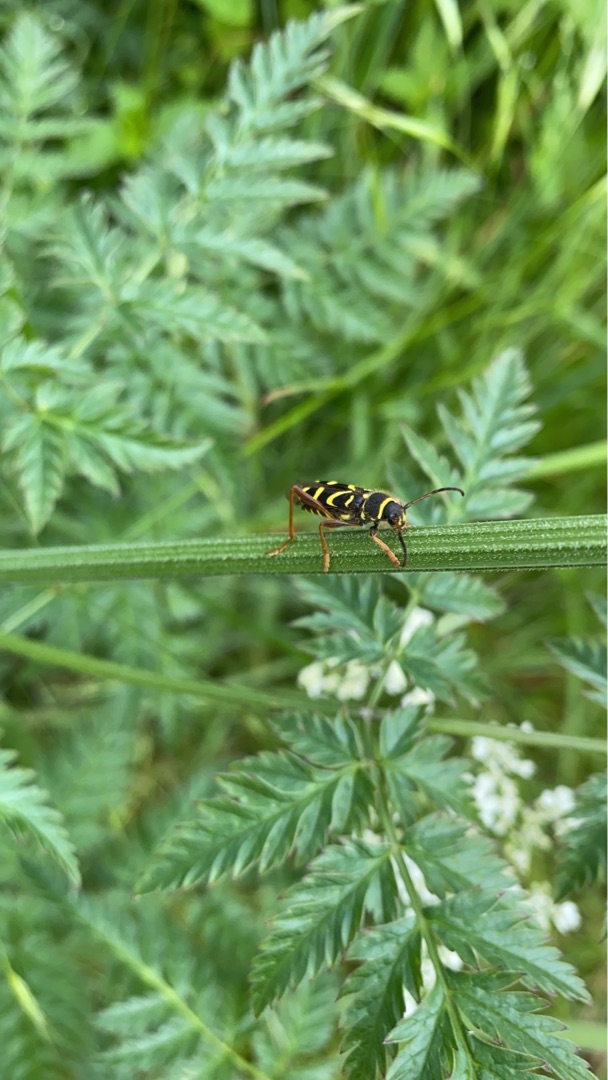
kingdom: Animalia
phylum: Arthropoda
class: Insecta
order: Coleoptera
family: Cerambycidae
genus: Clytus
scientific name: Clytus arietis
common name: Lille hvepsebuk
